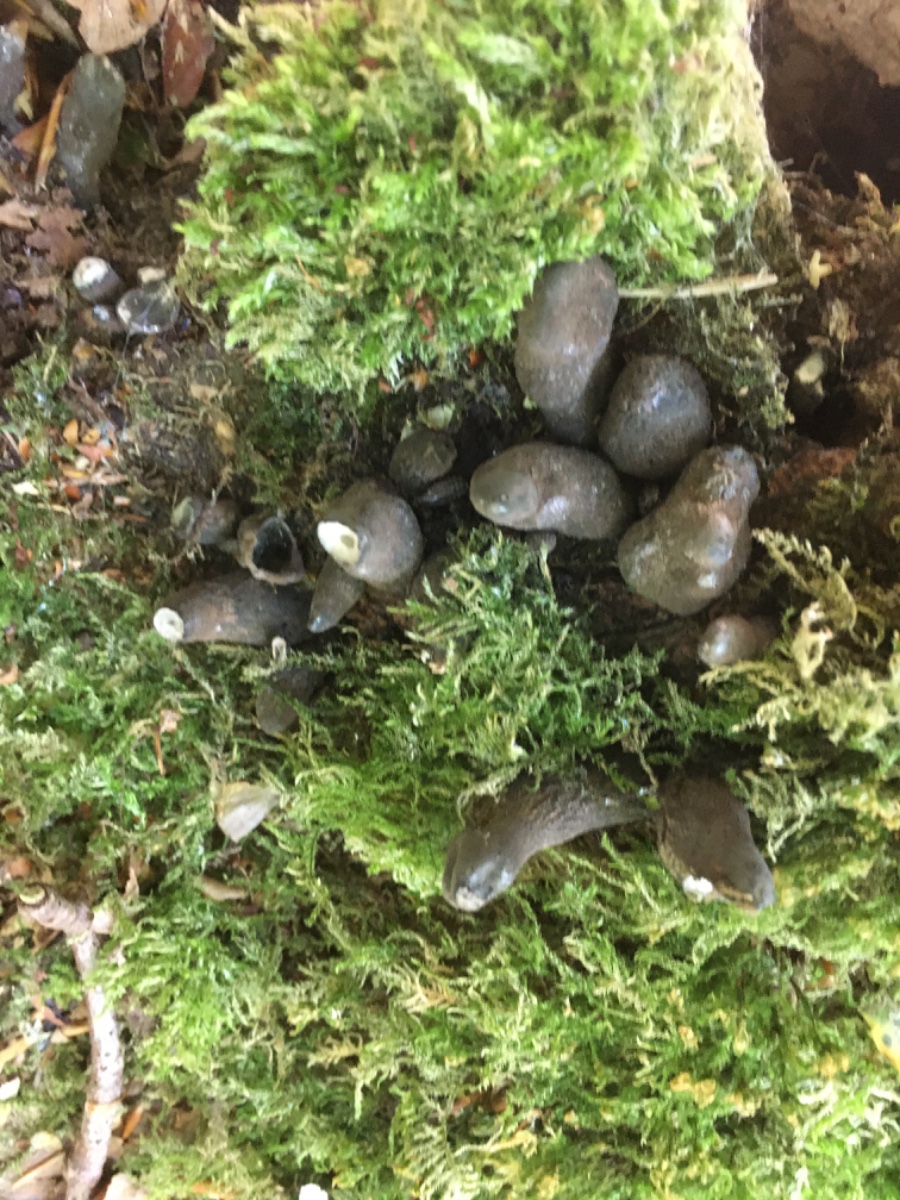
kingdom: Fungi
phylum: Ascomycota
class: Sordariomycetes
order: Xylariales
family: Xylariaceae
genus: Xylaria
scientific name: Xylaria polymorpha
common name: kølle-stødsvamp
